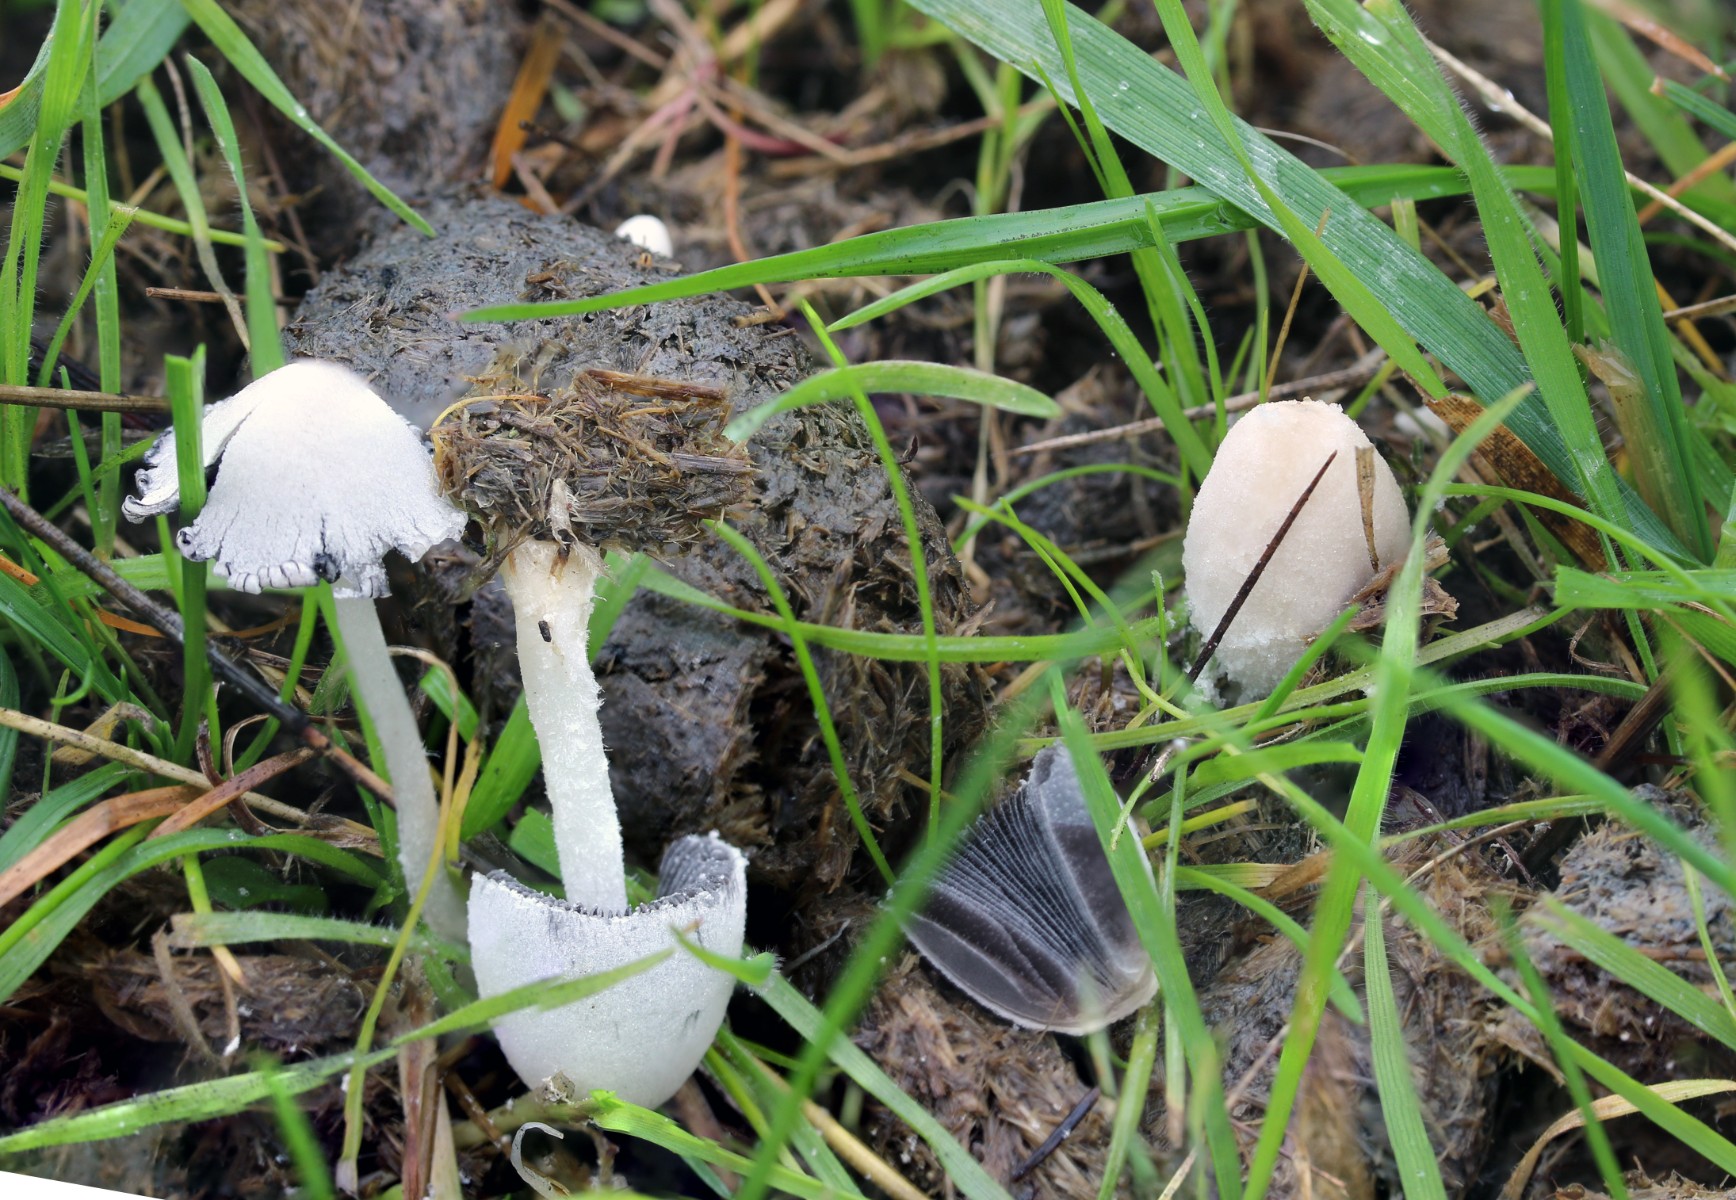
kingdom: Fungi
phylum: Basidiomycota
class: Agaricomycetes
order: Agaricales
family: Psathyrellaceae
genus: Coprinopsis
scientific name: Coprinopsis nivea
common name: snehvid blækhat
